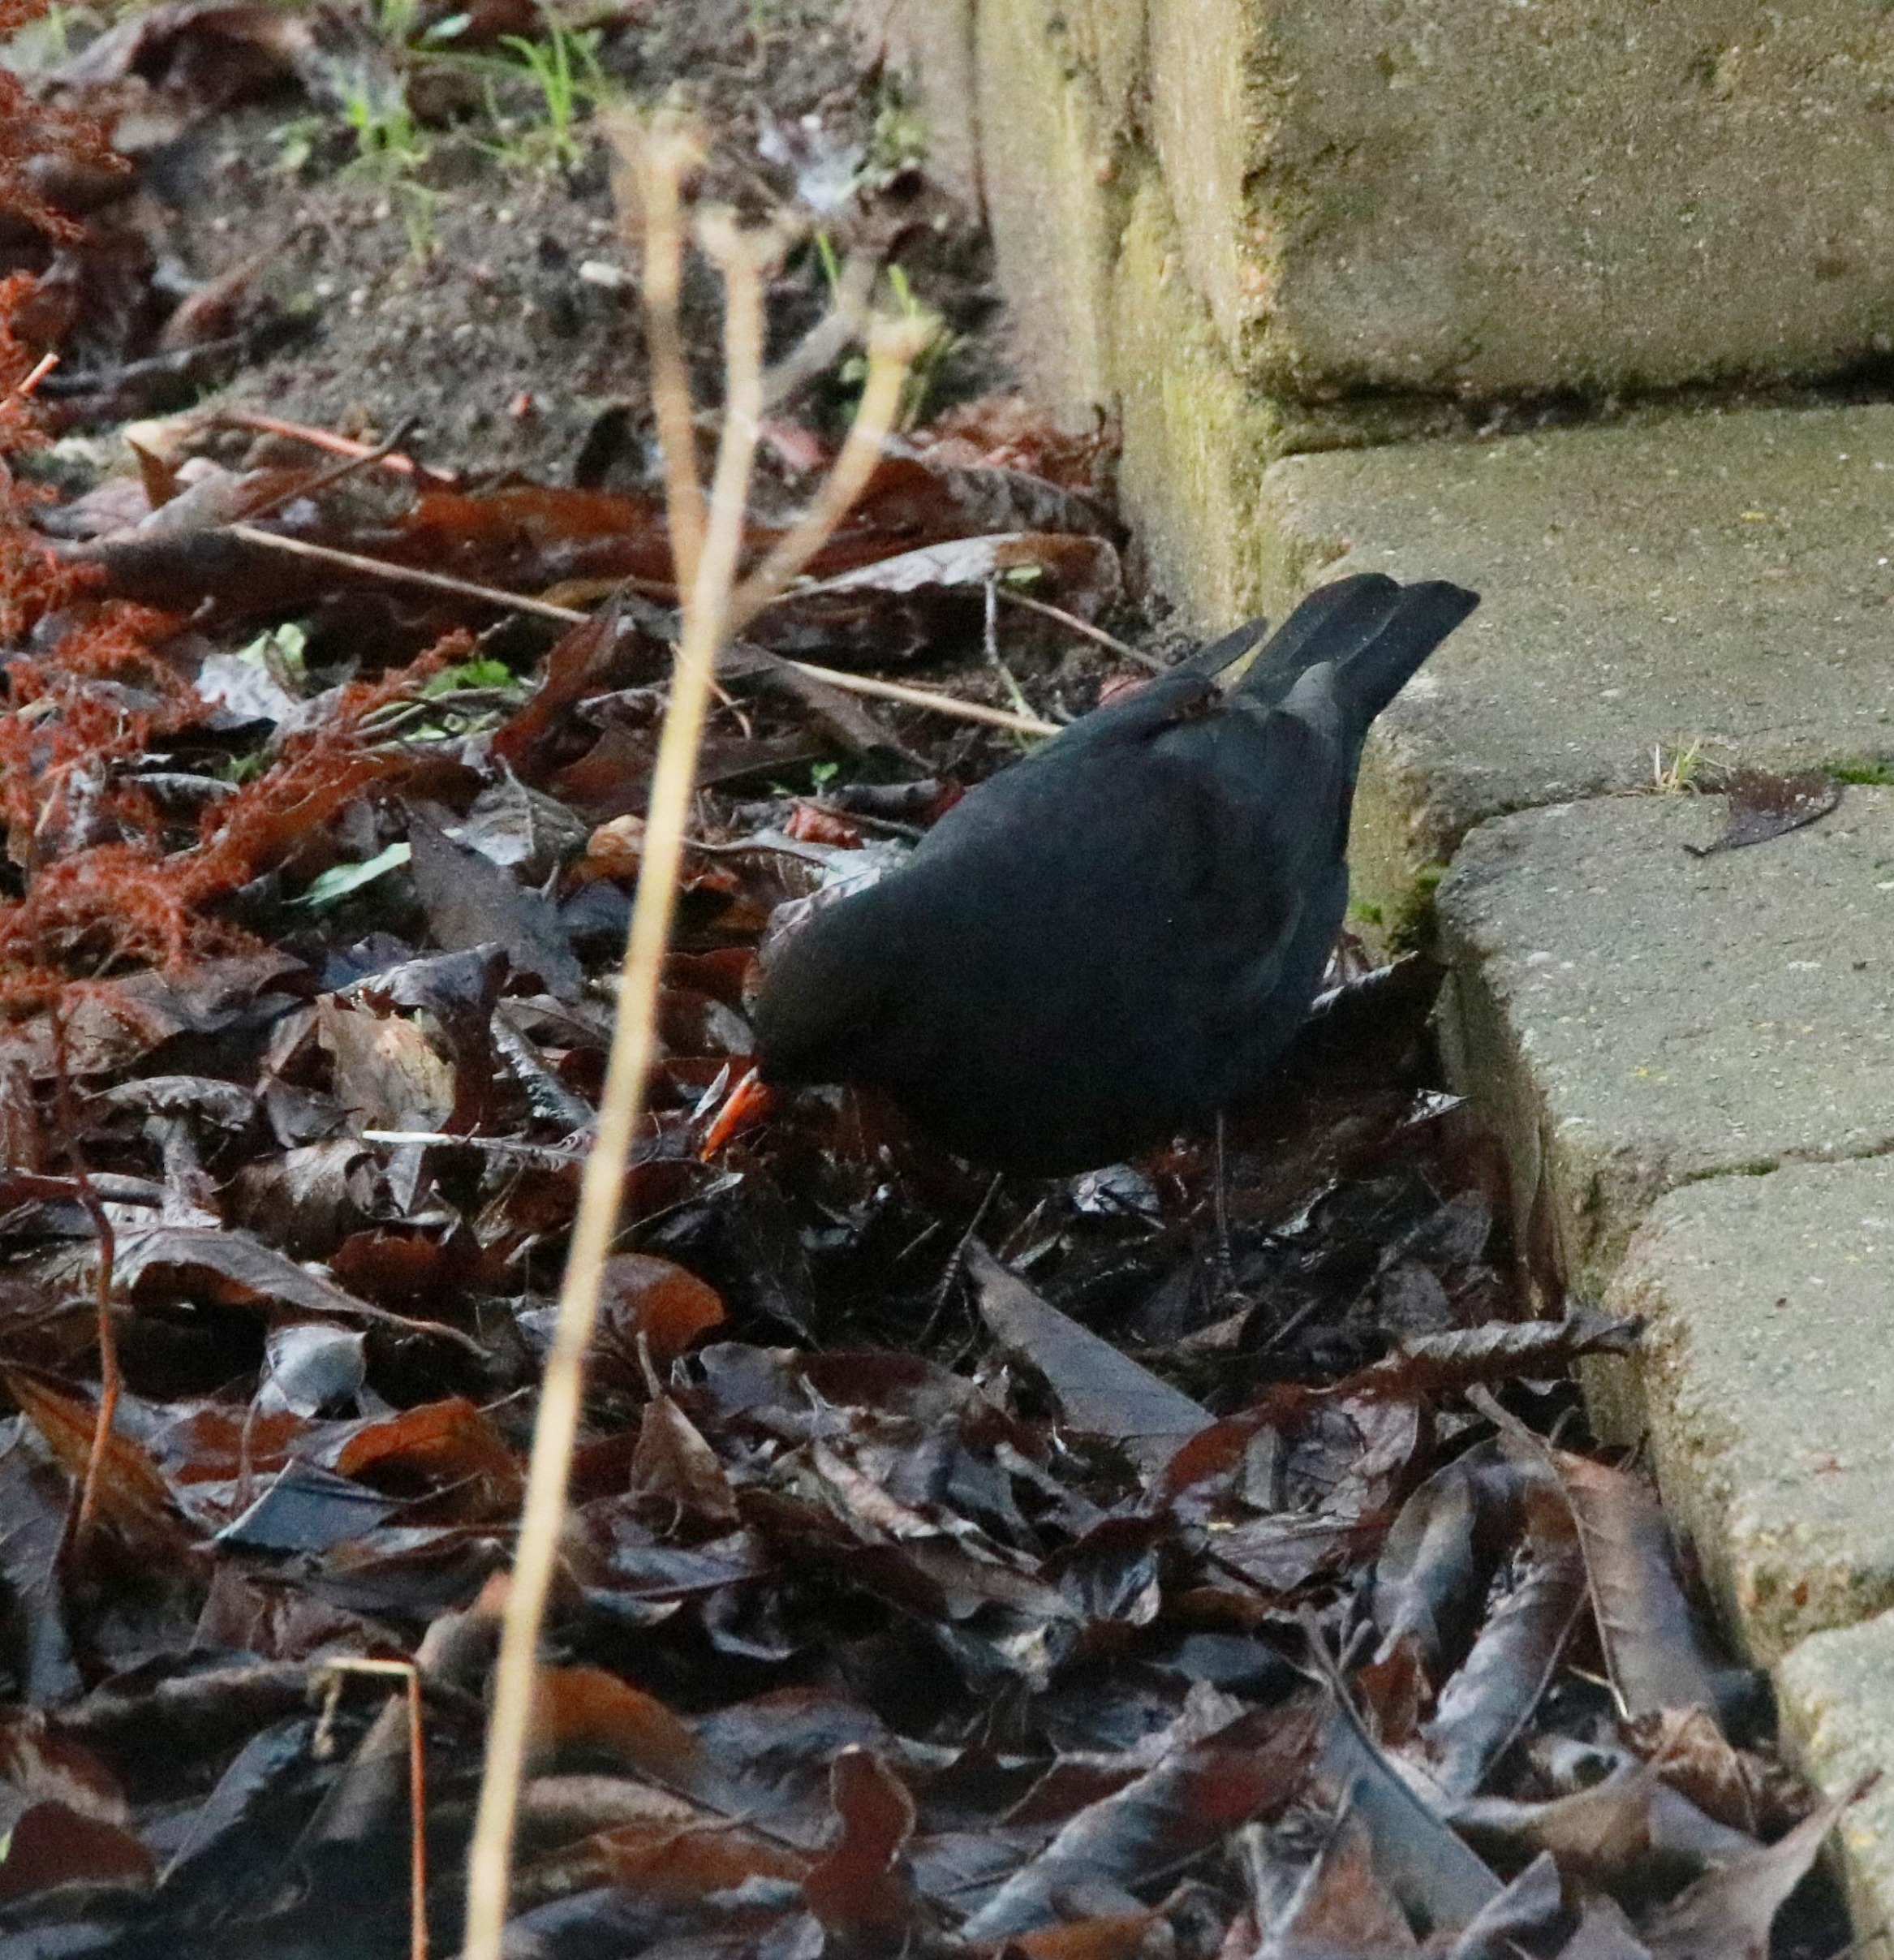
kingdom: Animalia
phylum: Chordata
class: Aves
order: Passeriformes
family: Turdidae
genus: Turdus
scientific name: Turdus merula
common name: Solsort
